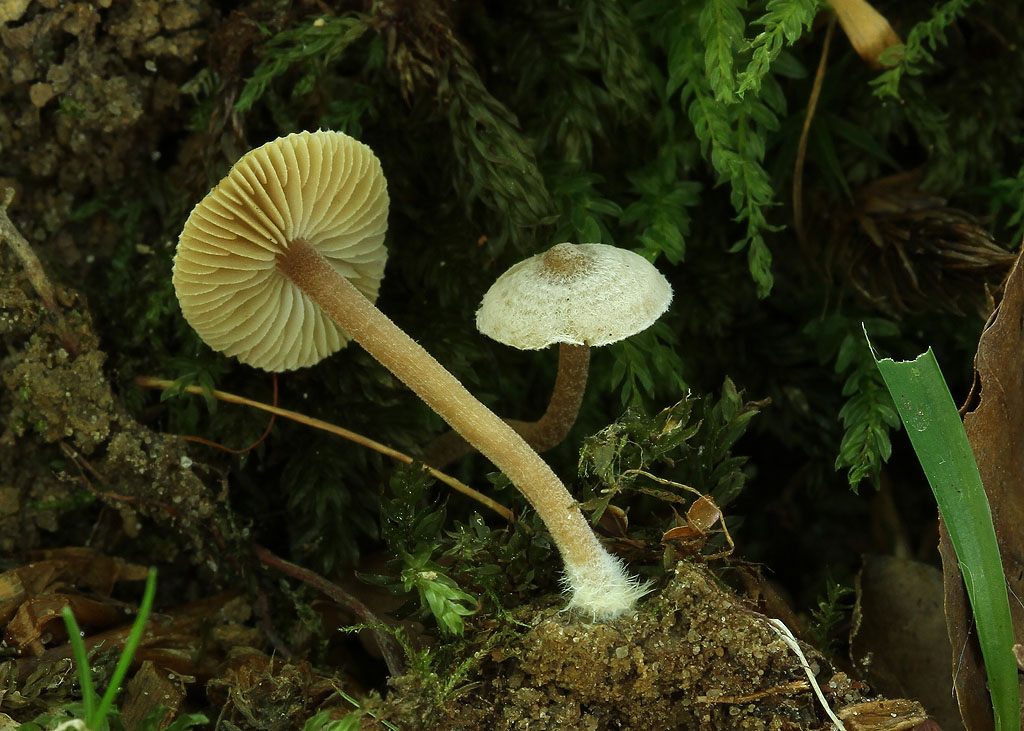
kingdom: Fungi
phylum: Basidiomycota
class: Agaricomycetes
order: Agaricales
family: Inocybaceae
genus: Inocybe
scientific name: Inocybe petiginosa
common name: liden trævlhat
